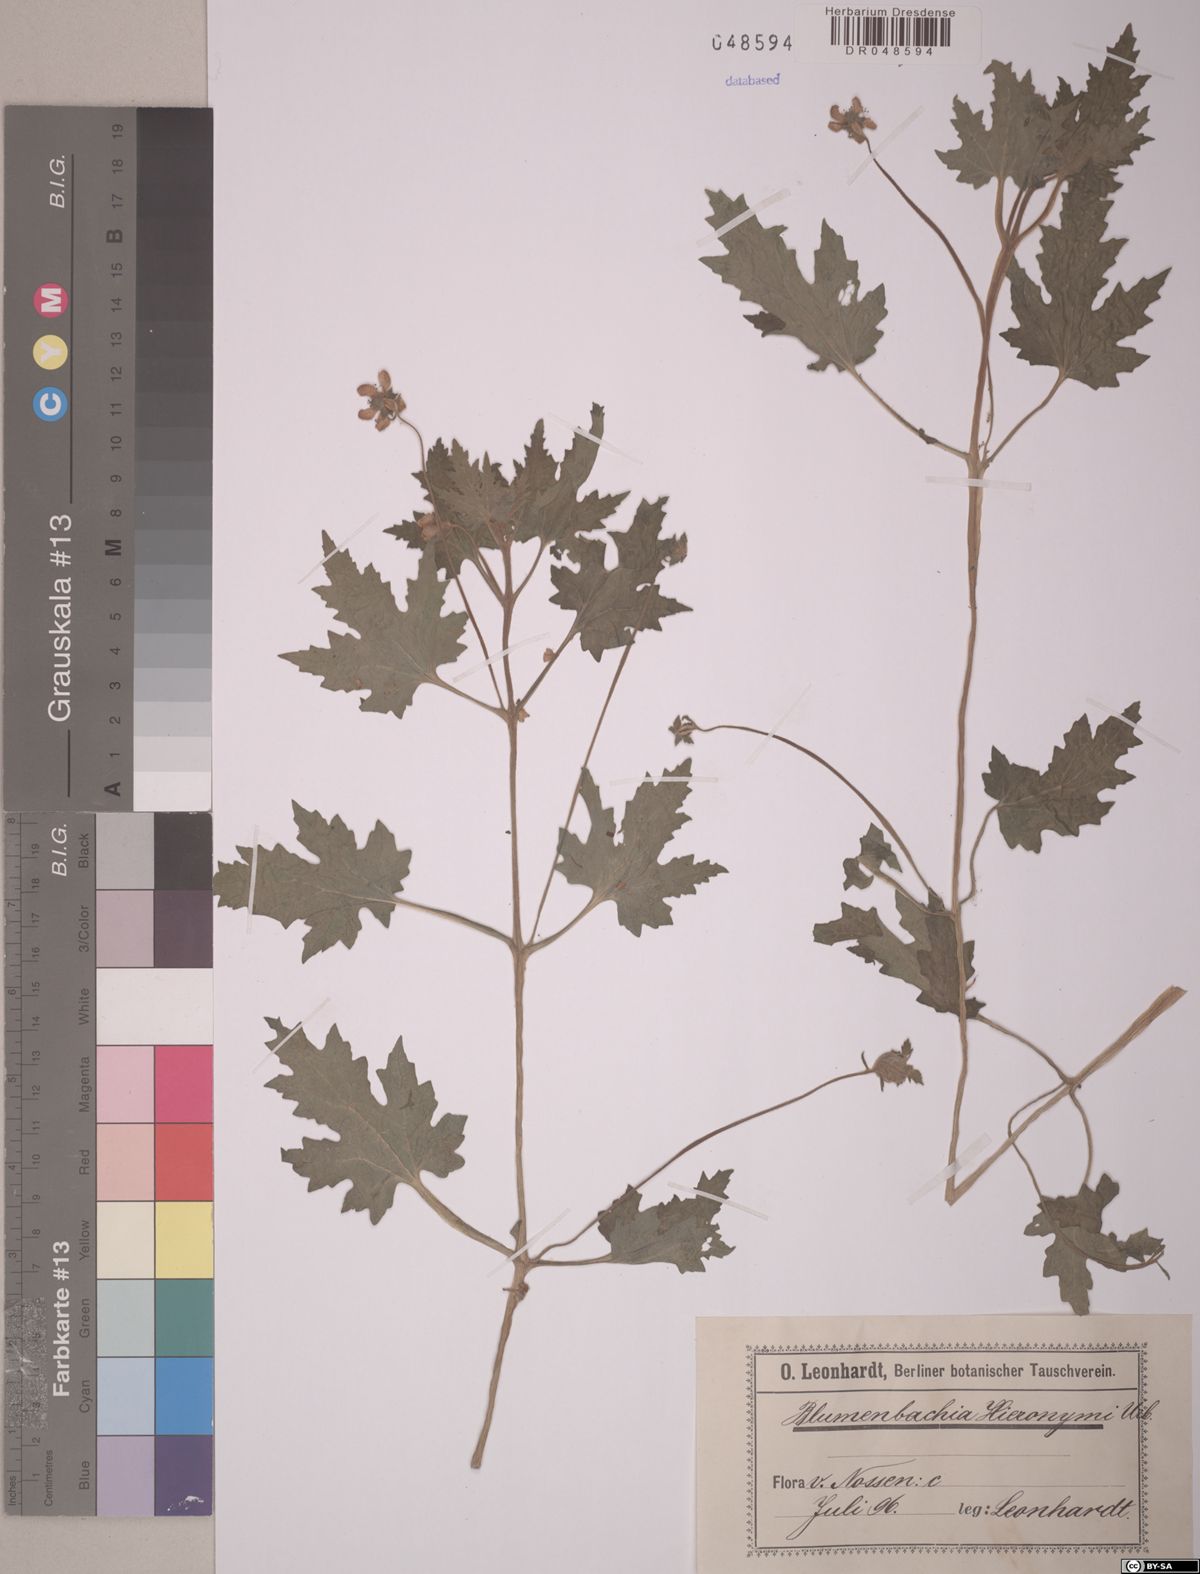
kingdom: Plantae
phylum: Tracheophyta
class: Magnoliopsida
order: Cornales
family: Loasaceae
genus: Blumenbachia
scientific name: Blumenbachia hieronymi
